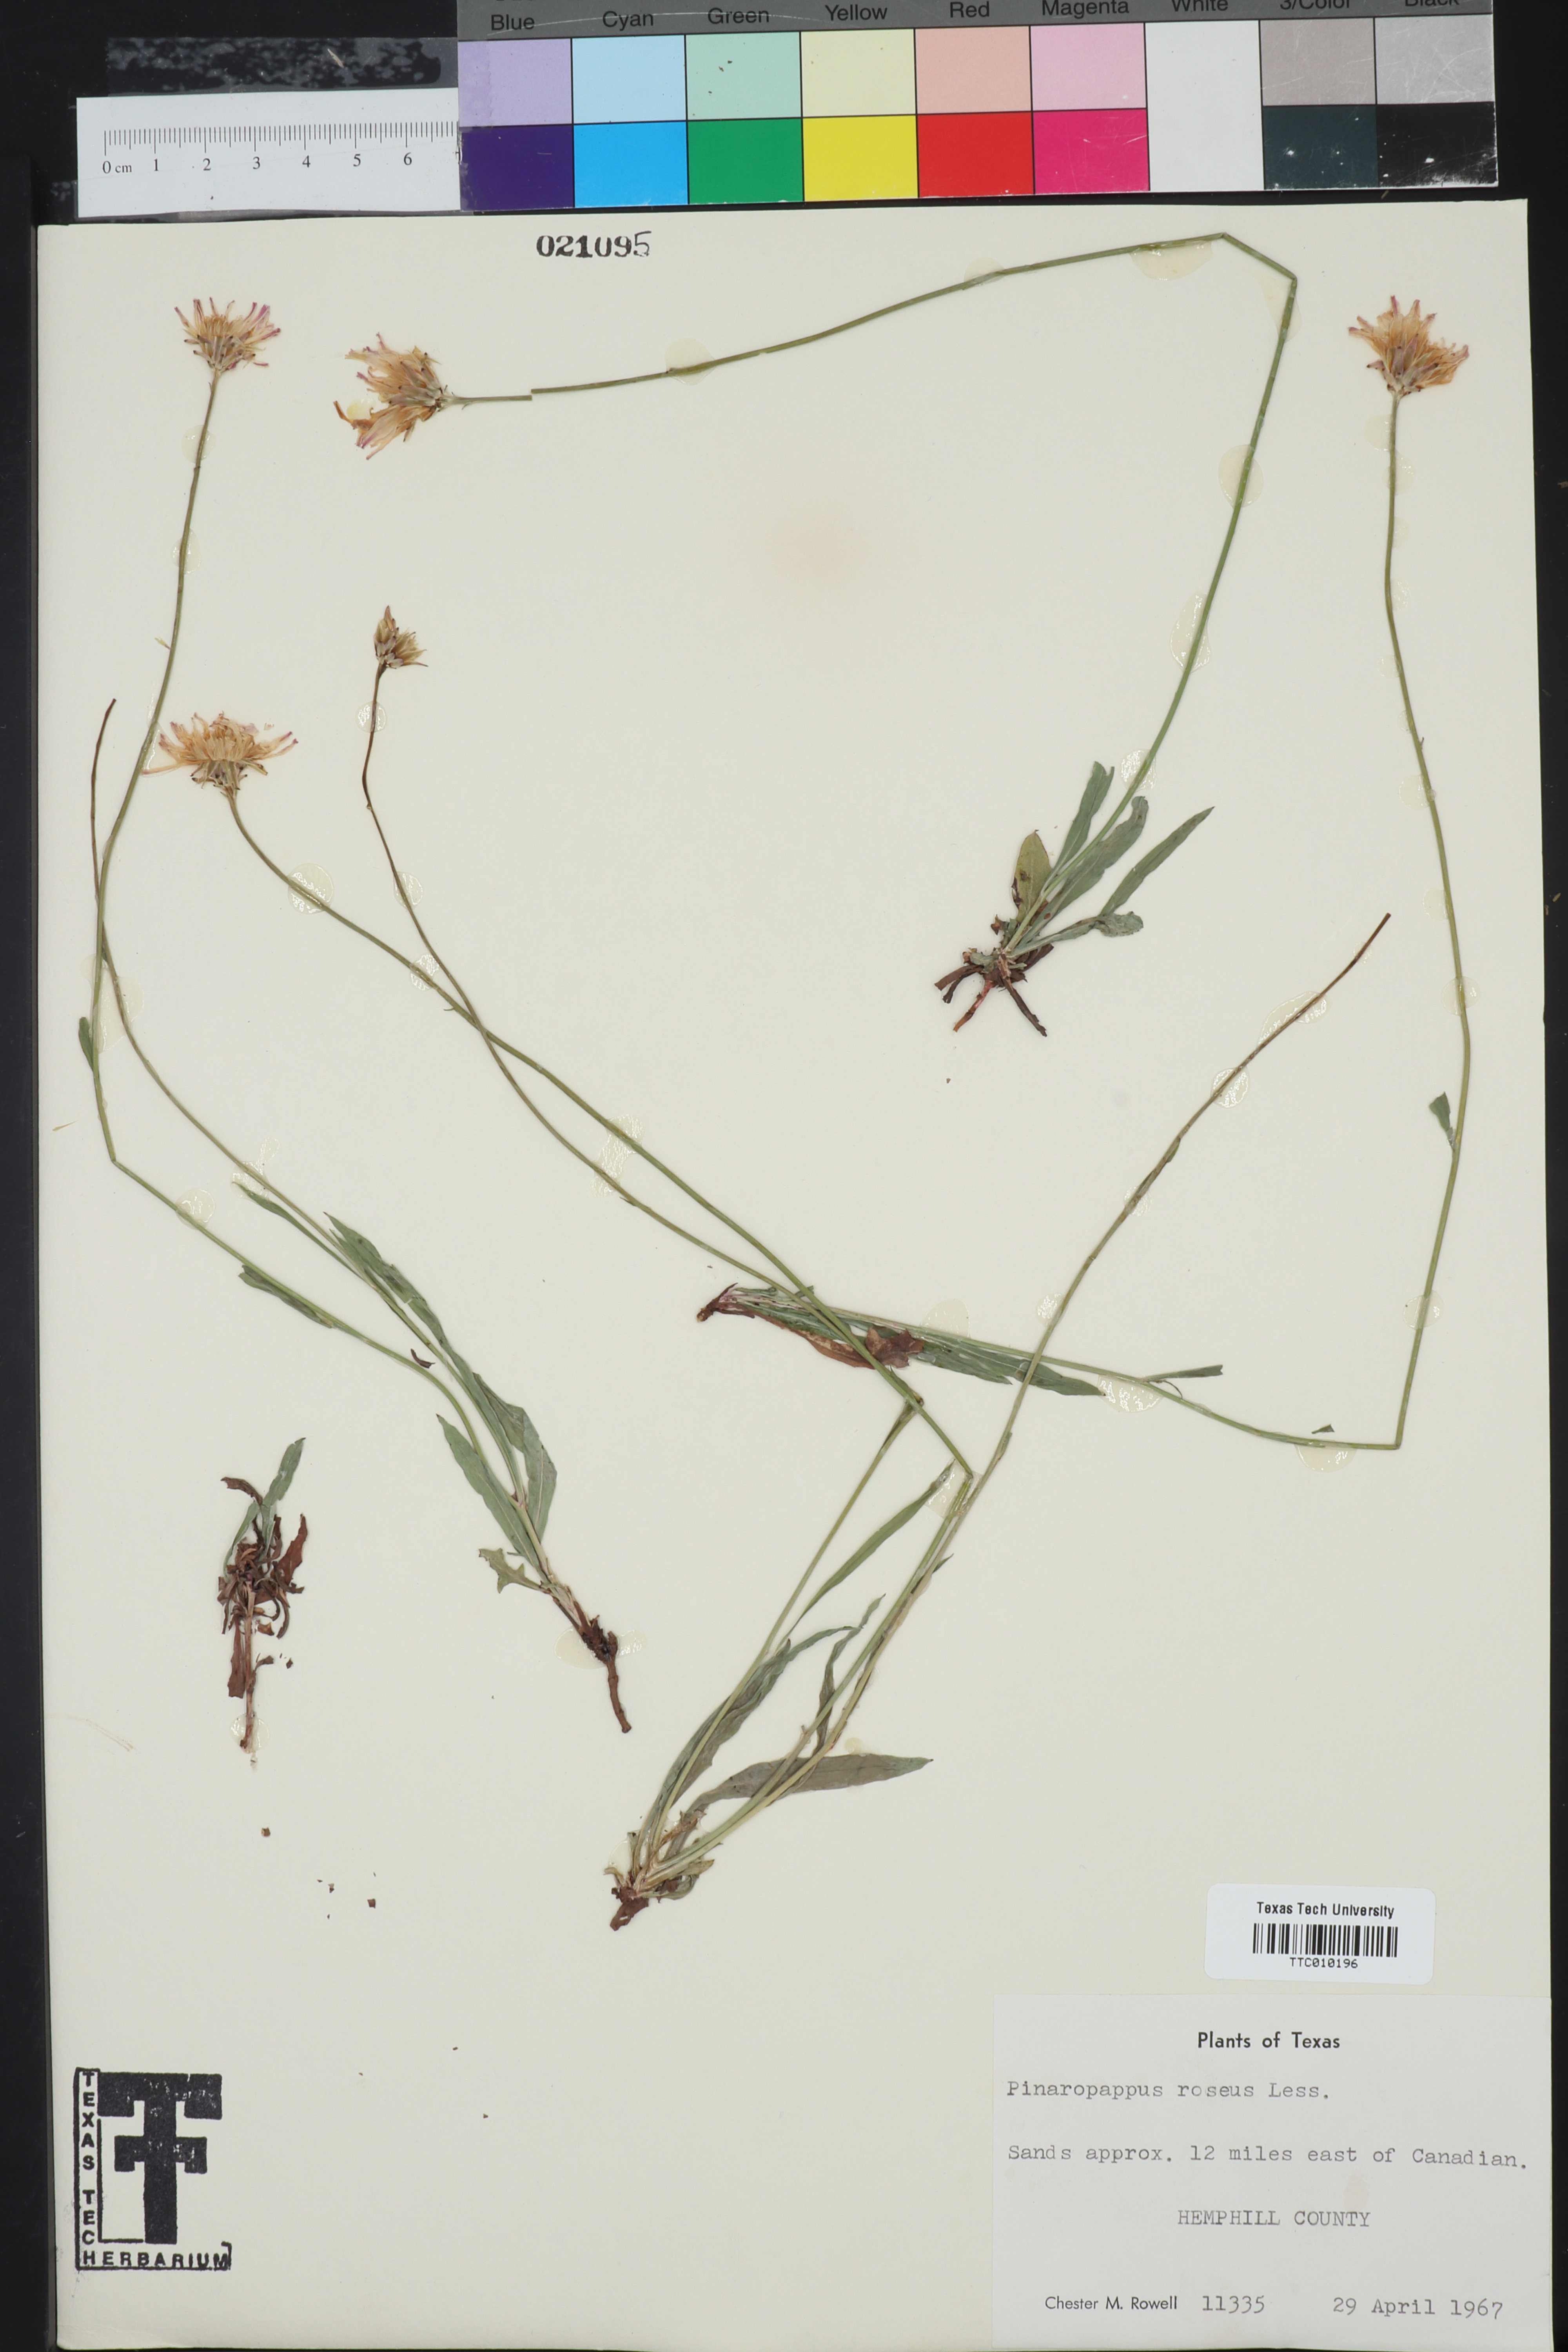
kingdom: Plantae
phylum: Tracheophyta
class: Magnoliopsida
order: Asterales
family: Asteraceae
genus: Pinaropappus
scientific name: Pinaropappus roseus
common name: Rock-lettuce
